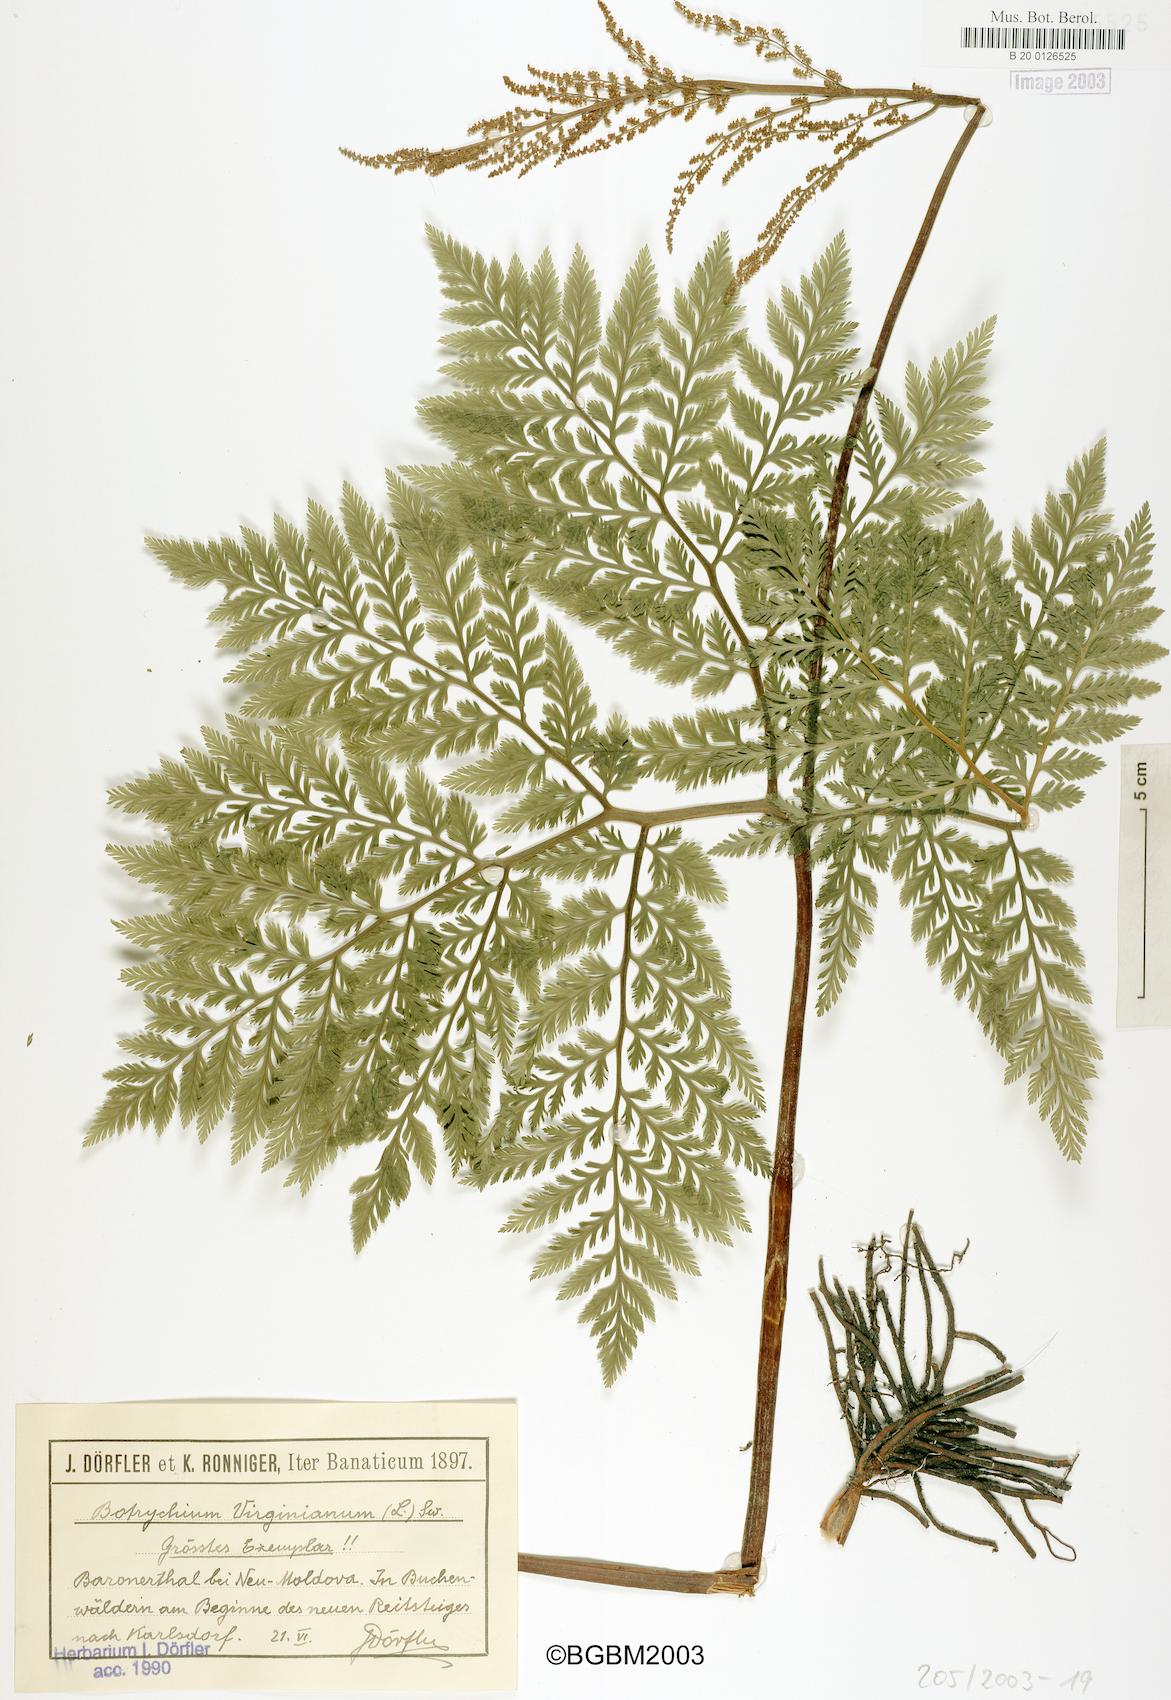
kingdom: Plantae
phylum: Tracheophyta
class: Polypodiopsida
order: Ophioglossales
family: Ophioglossaceae
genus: Botrypus
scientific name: Botrypus virginianus
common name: Common grapefern
